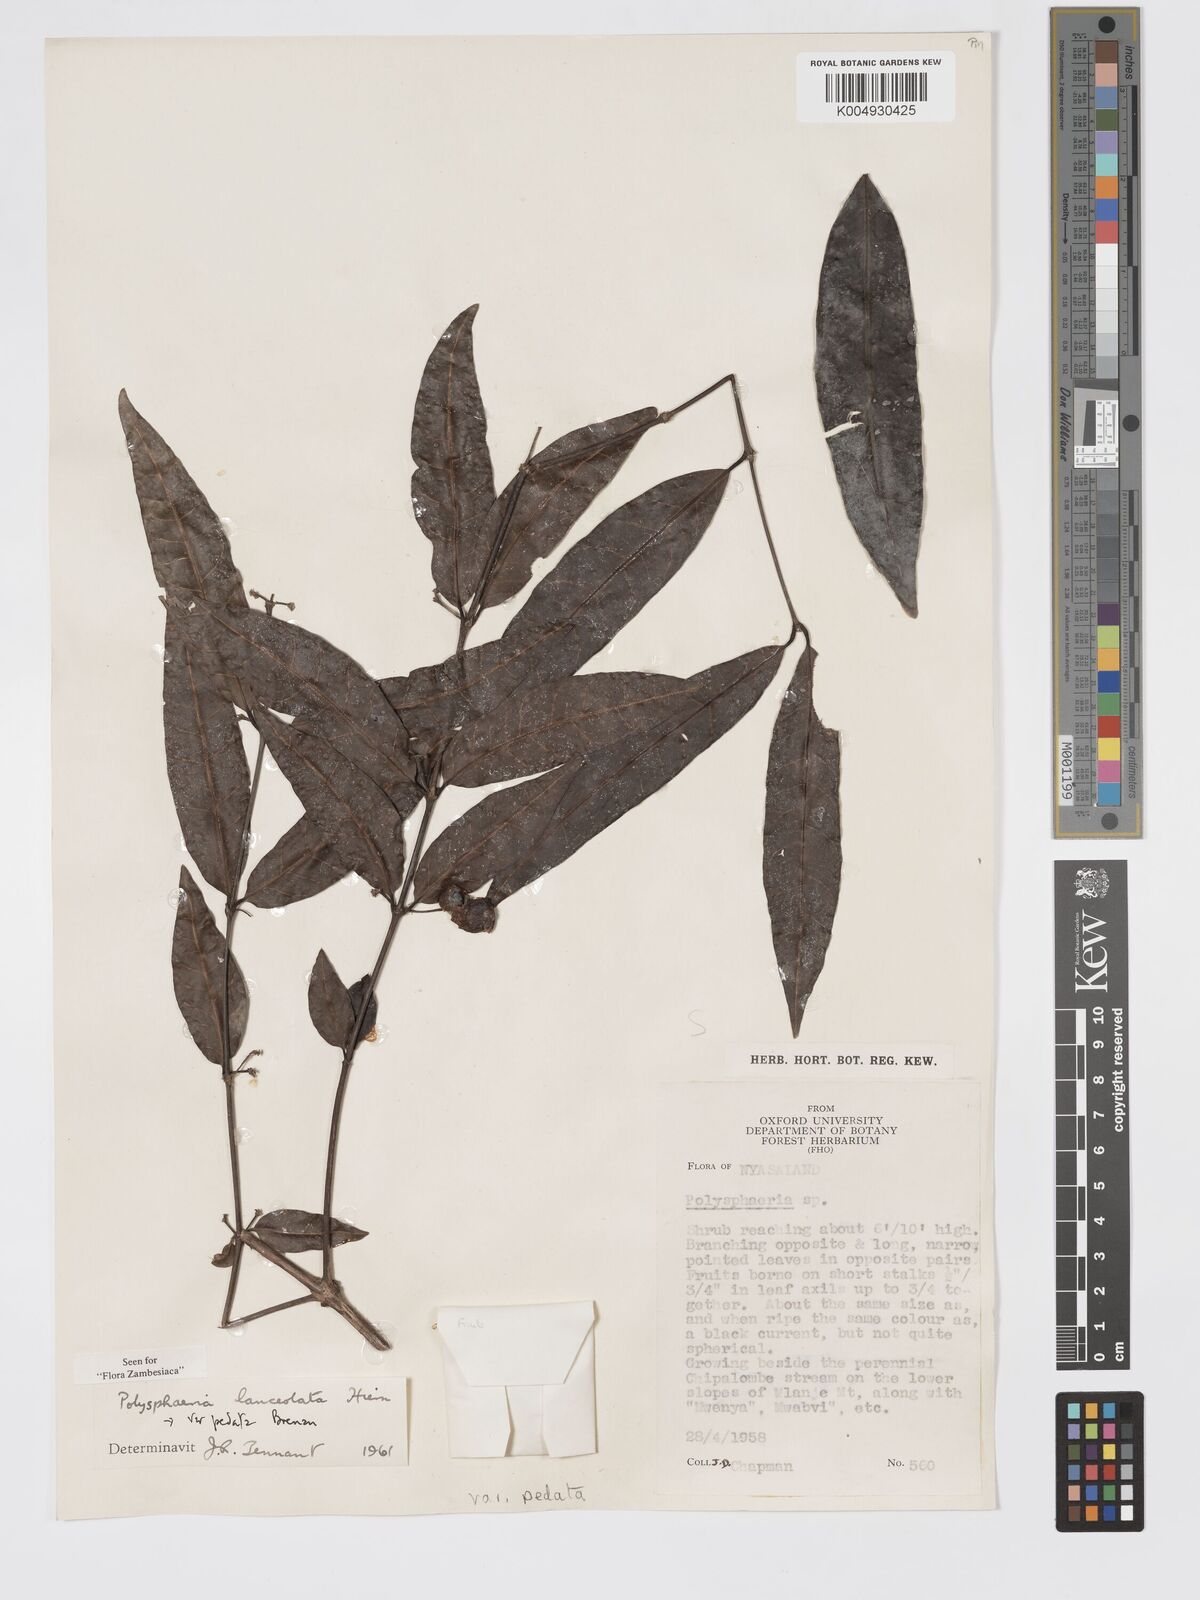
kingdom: Plantae
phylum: Tracheophyta
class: Magnoliopsida
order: Gentianales
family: Rubiaceae
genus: Polysphaeria
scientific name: Polysphaeria lanceolata
